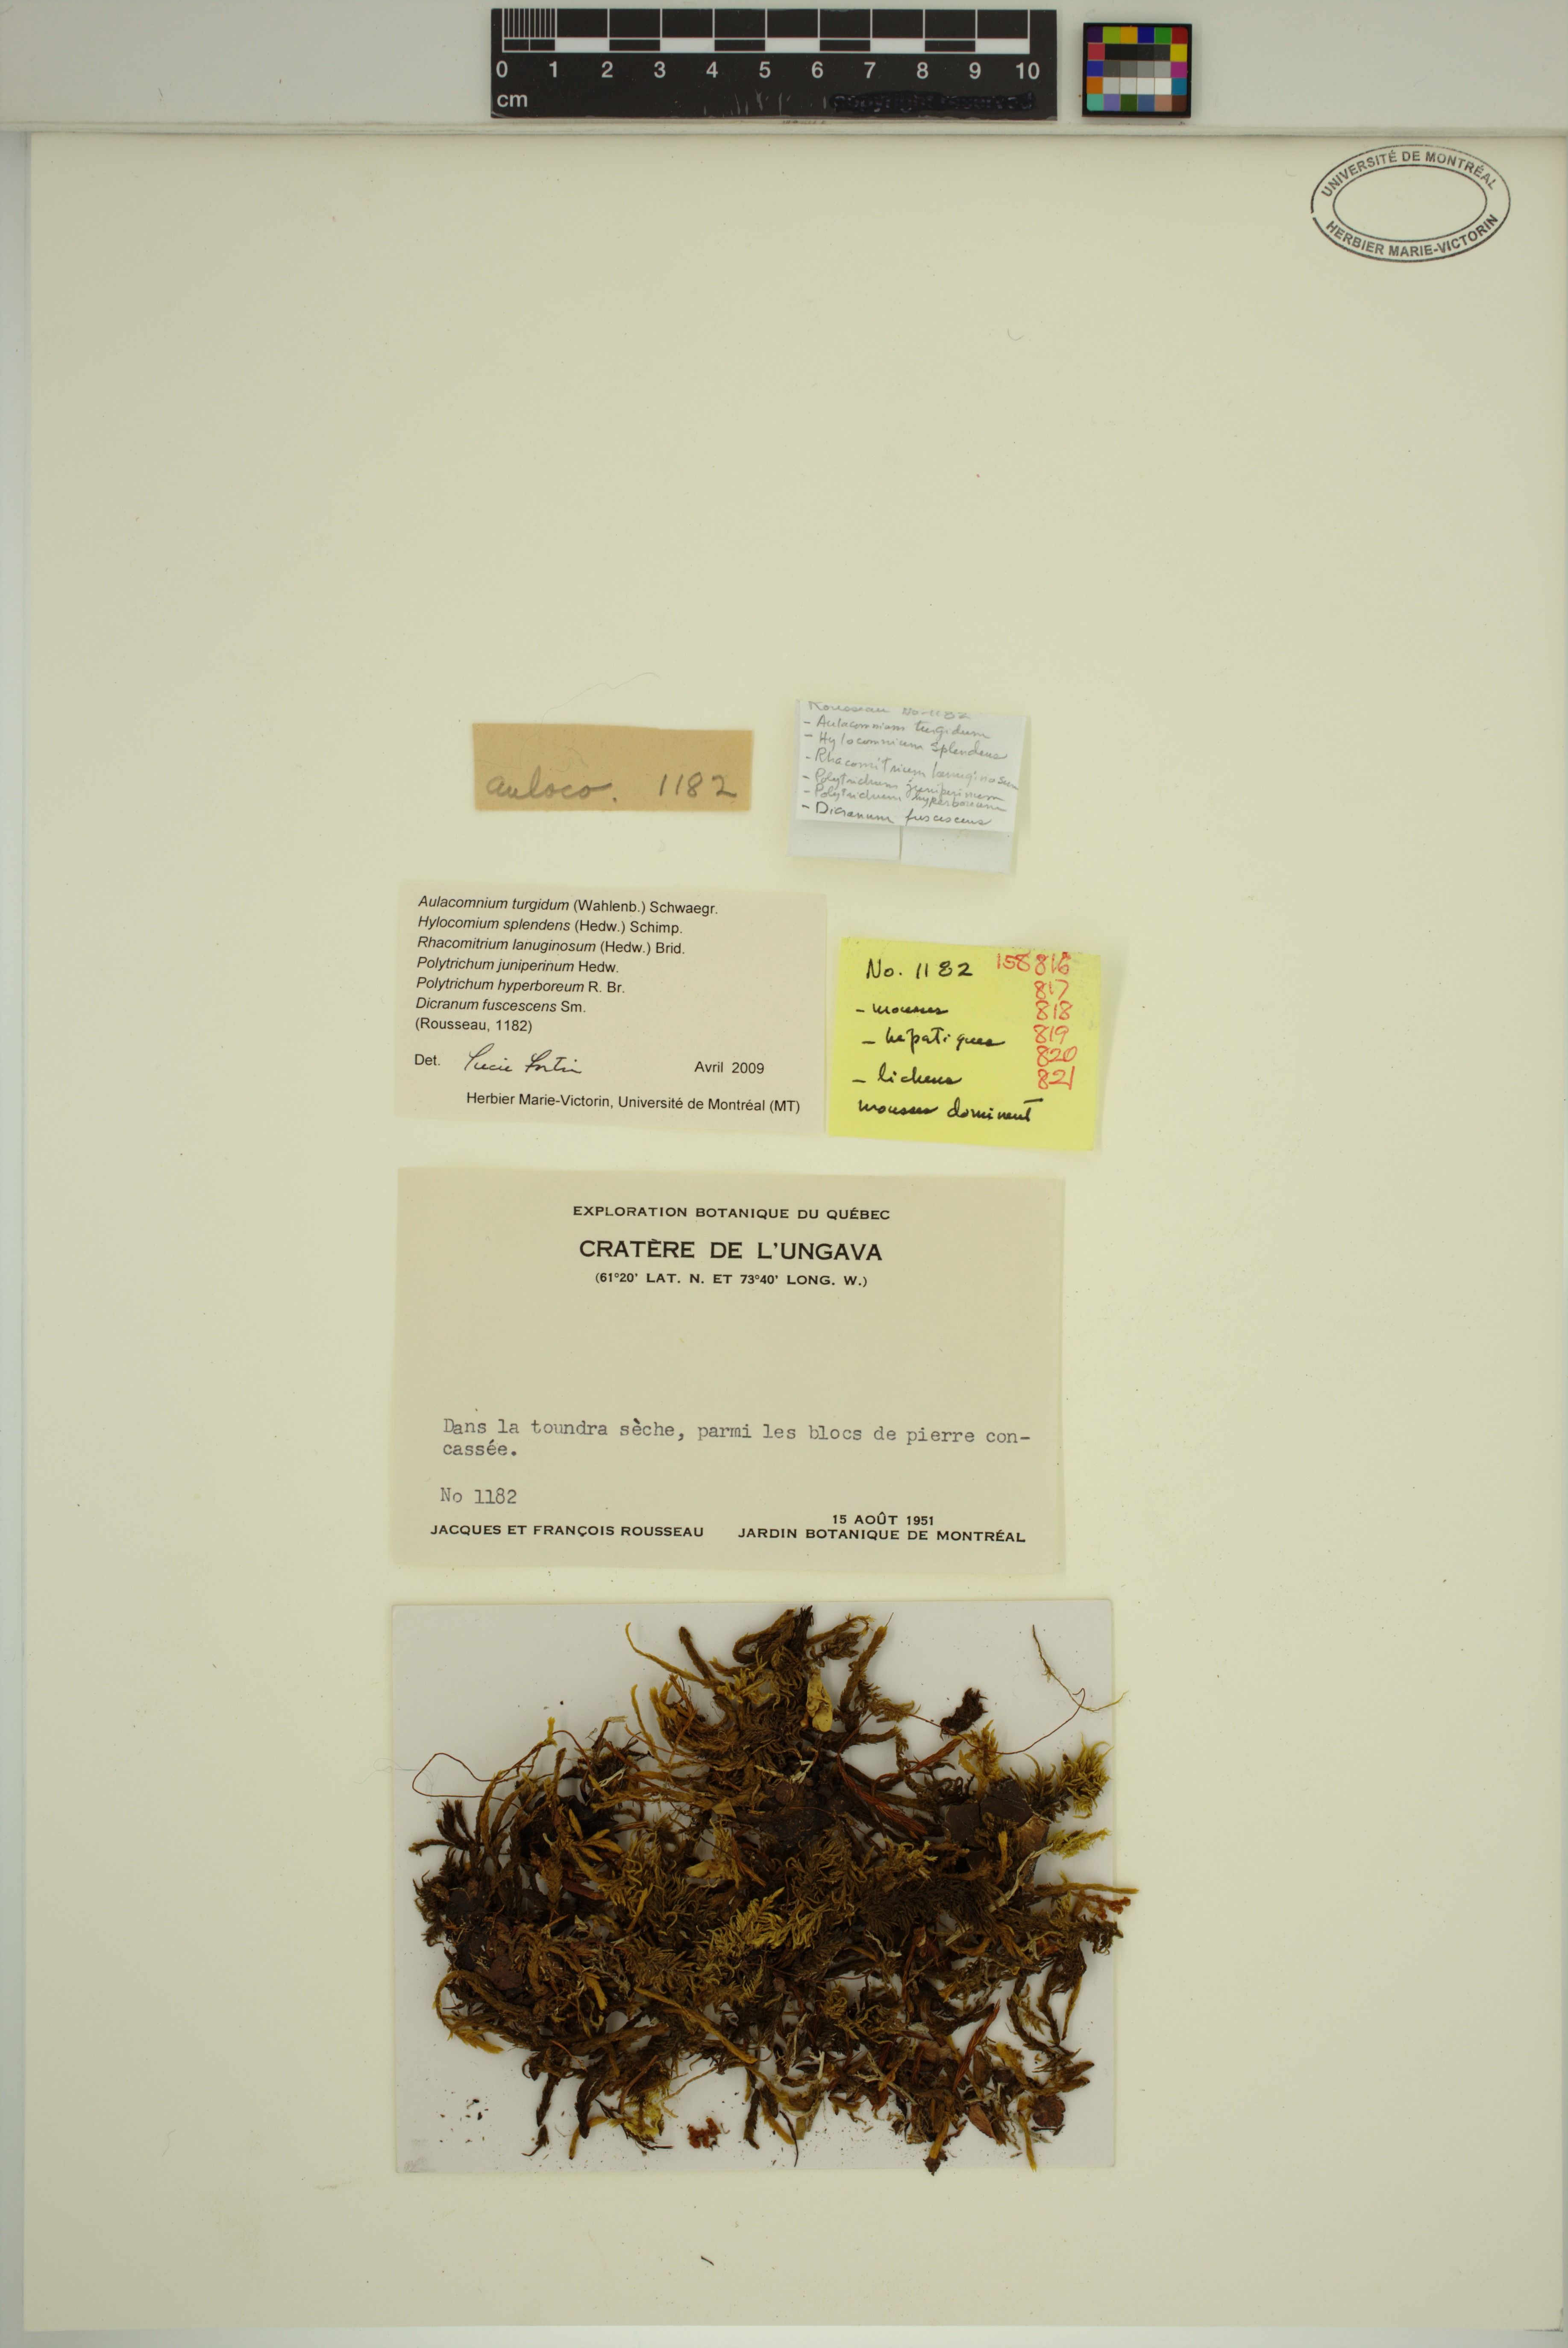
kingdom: Plantae
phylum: Bryophyta
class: Bryopsida
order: Grimmiales
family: Grimmiaceae
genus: Racomitrium
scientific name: Racomitrium lanuginosum
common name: Hoary rock moss
